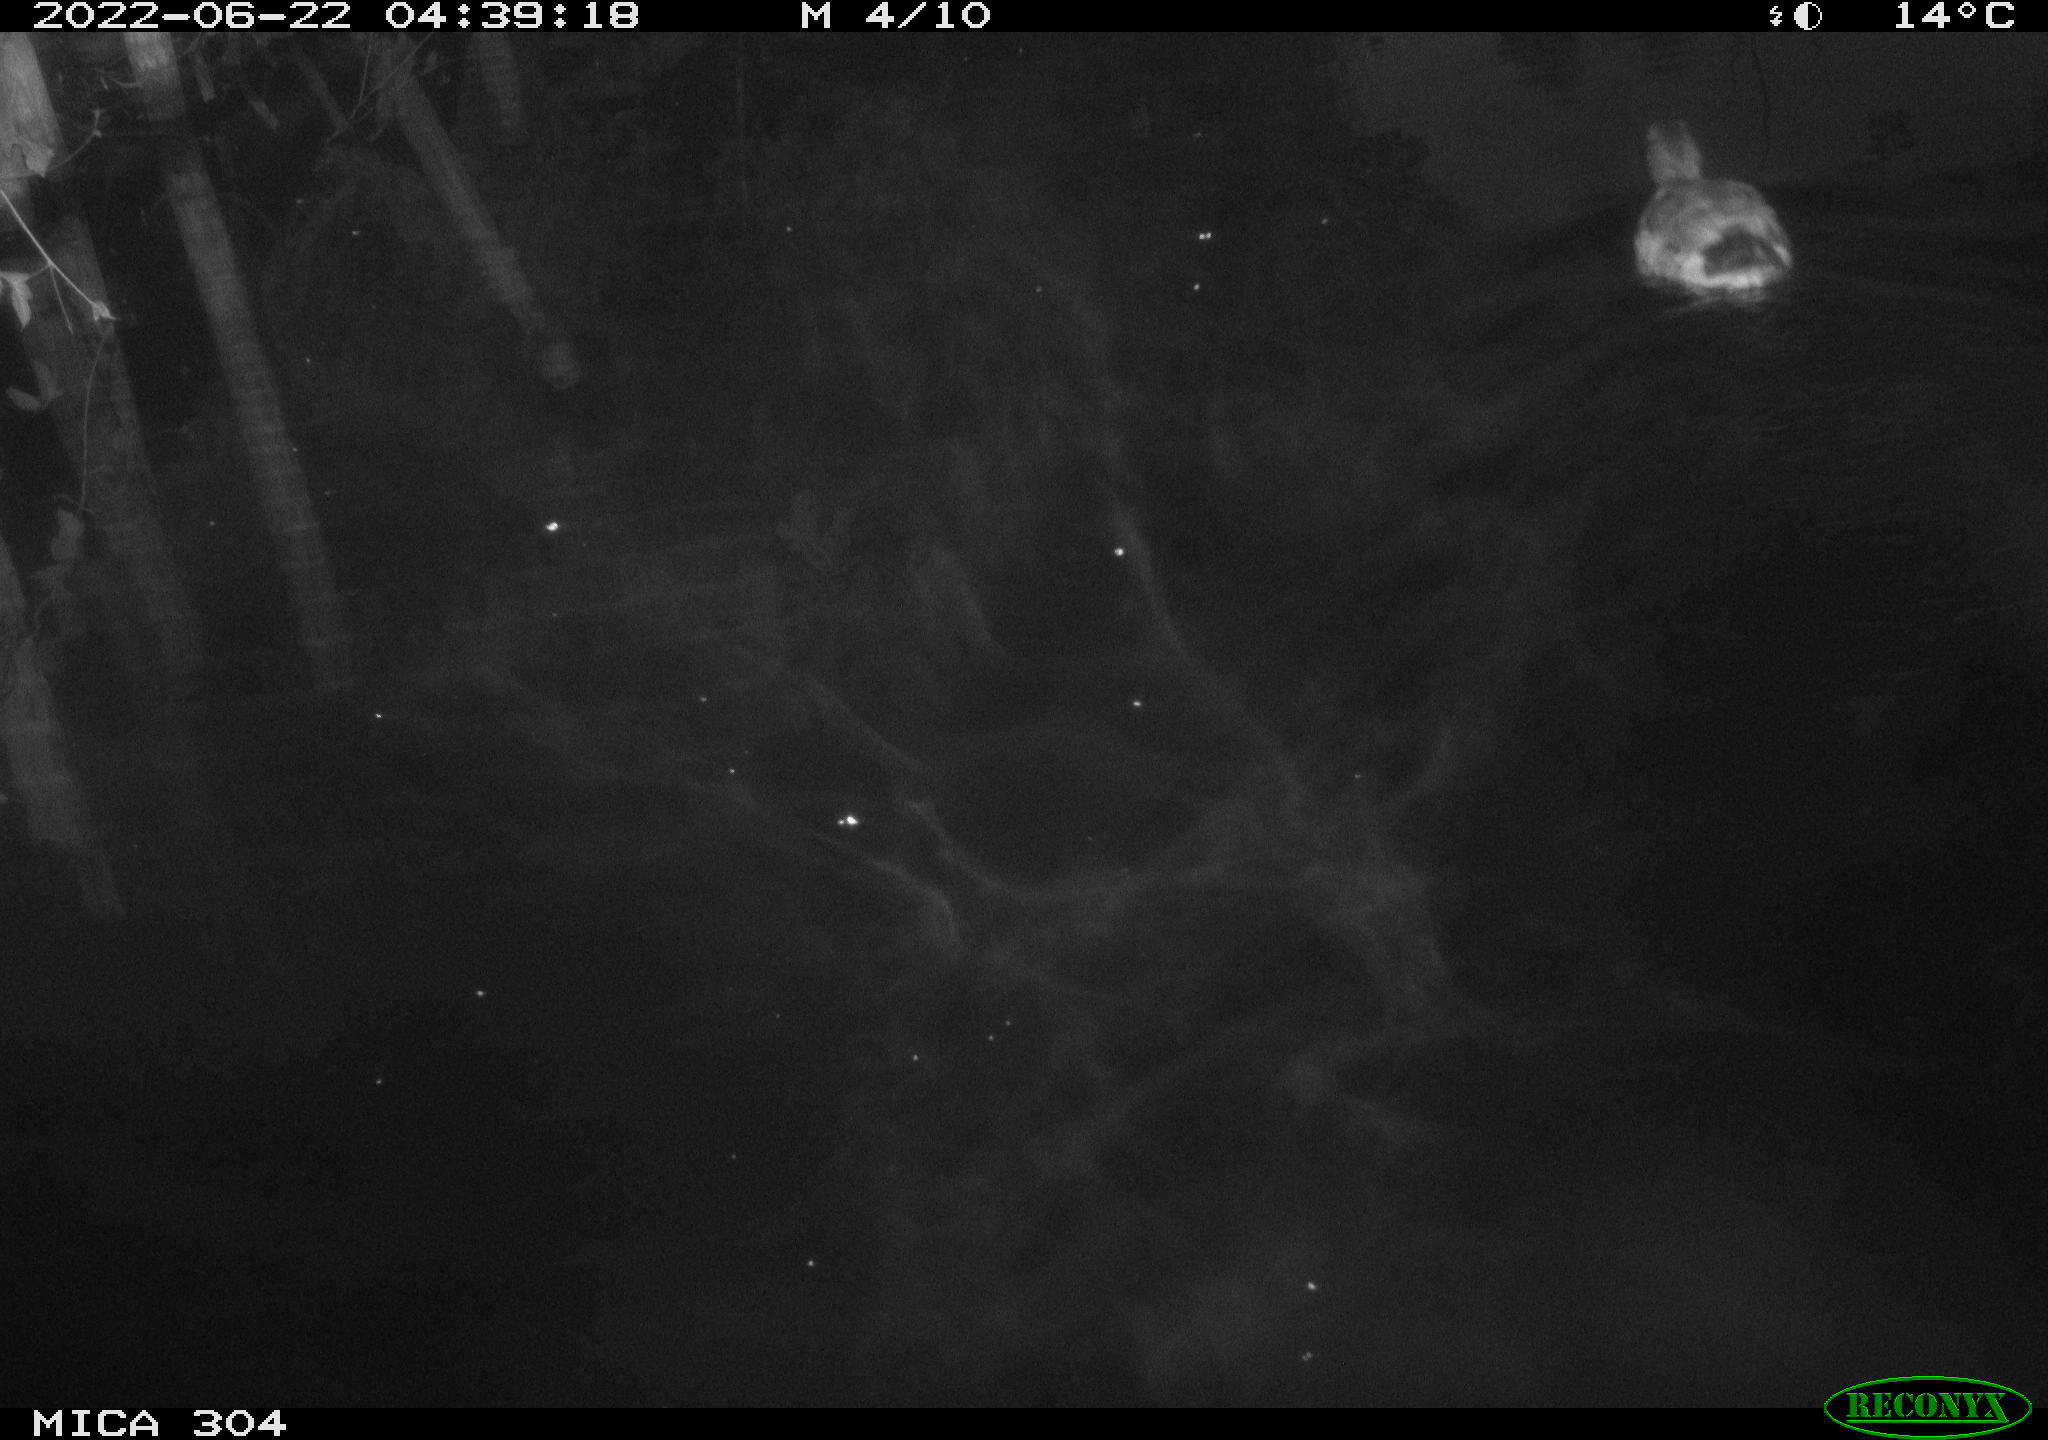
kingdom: Animalia
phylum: Chordata
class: Aves
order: Anseriformes
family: Anatidae
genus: Anas
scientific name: Anas platyrhynchos
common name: Mallard
